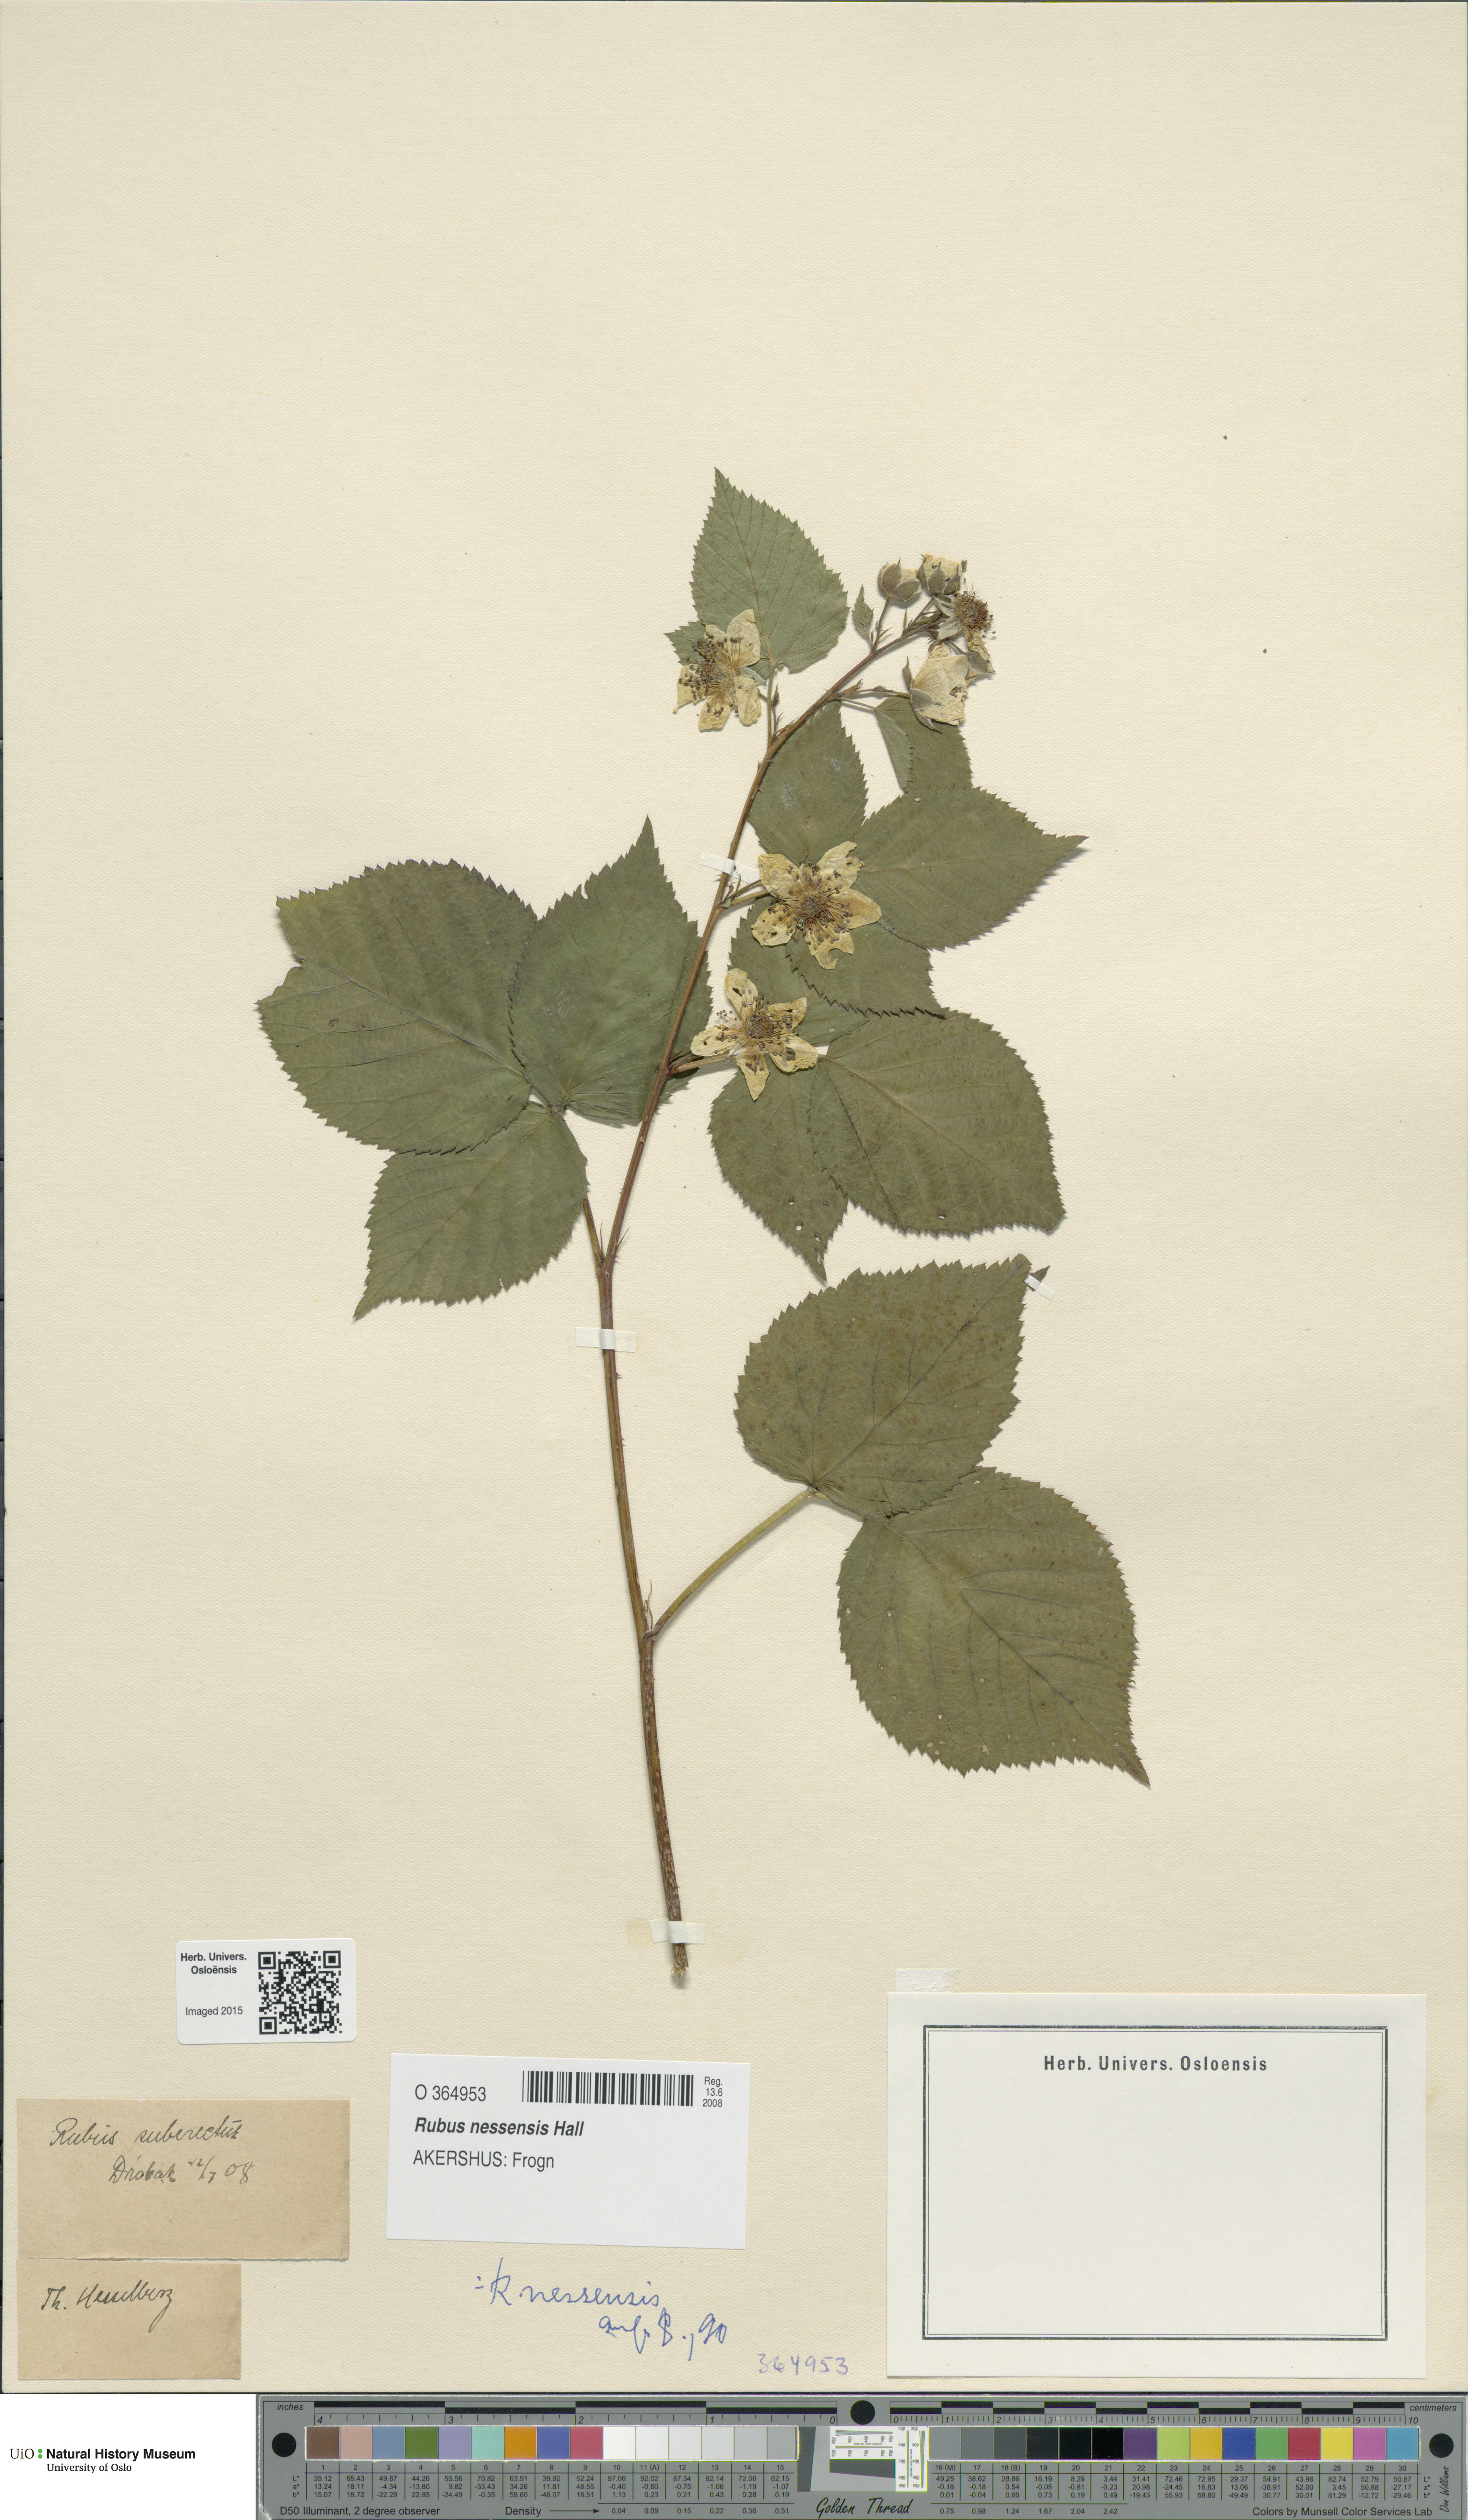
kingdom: Plantae
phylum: Tracheophyta
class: Magnoliopsida
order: Rosales
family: Rosaceae
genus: Rubus
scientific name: Rubus polonicus
